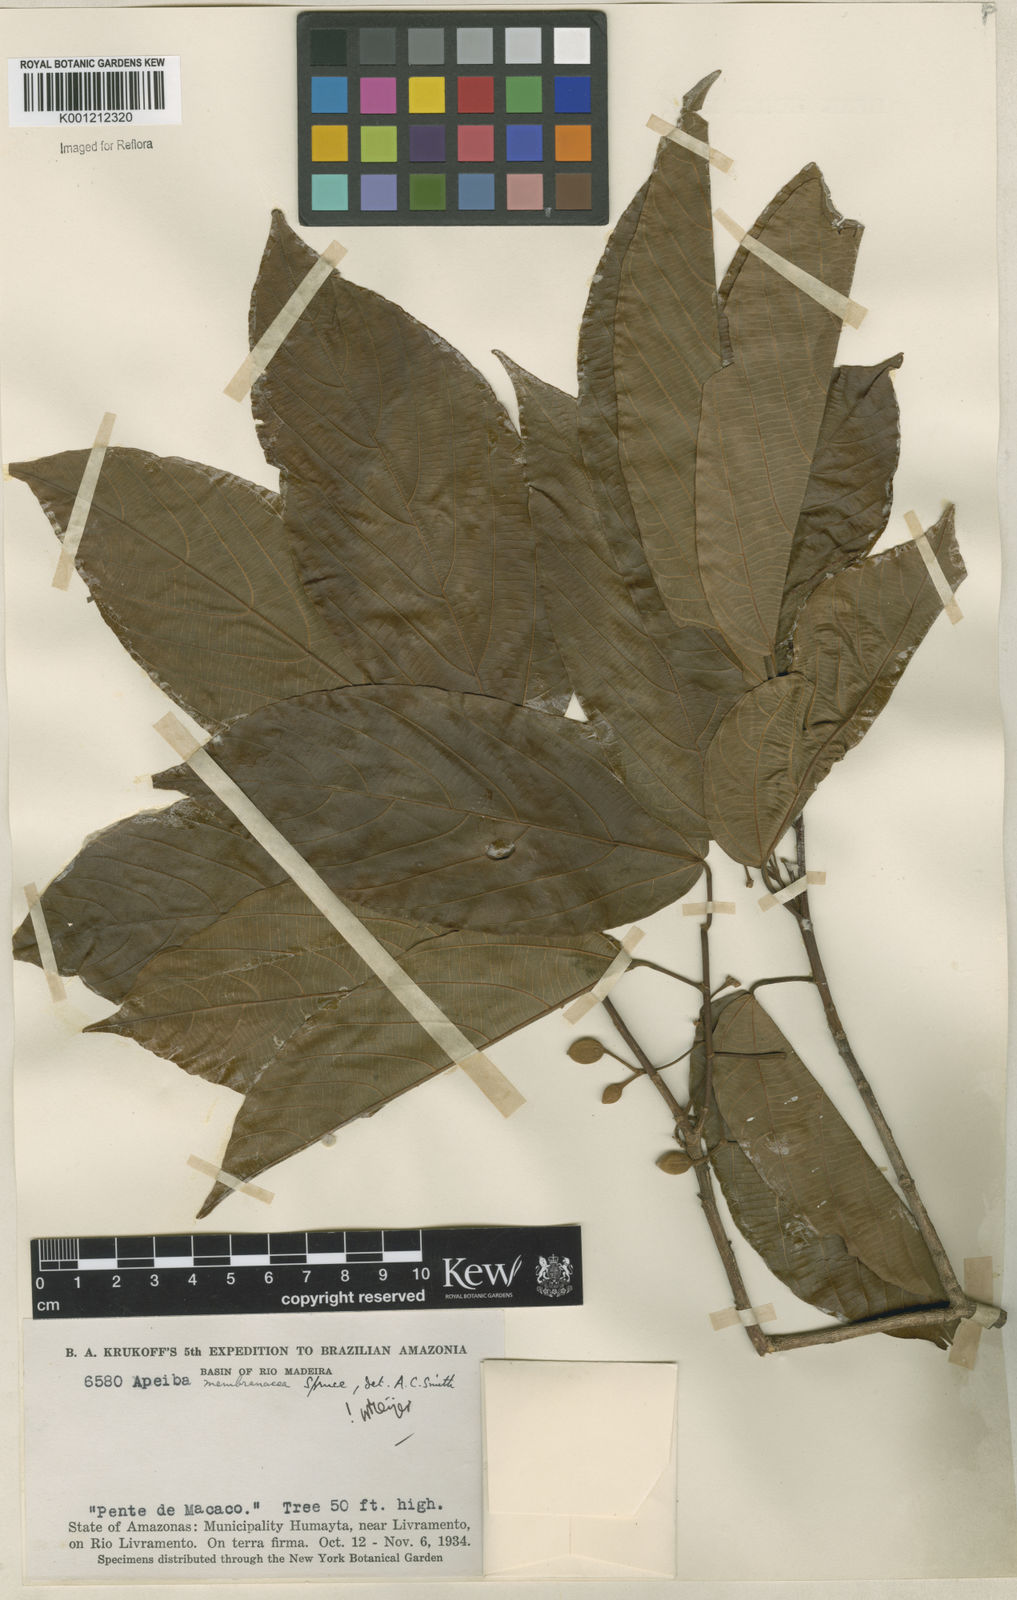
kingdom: Plantae
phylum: Tracheophyta
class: Magnoliopsida
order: Malvales
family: Malvaceae
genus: Apeiba
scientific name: Apeiba membranacea
